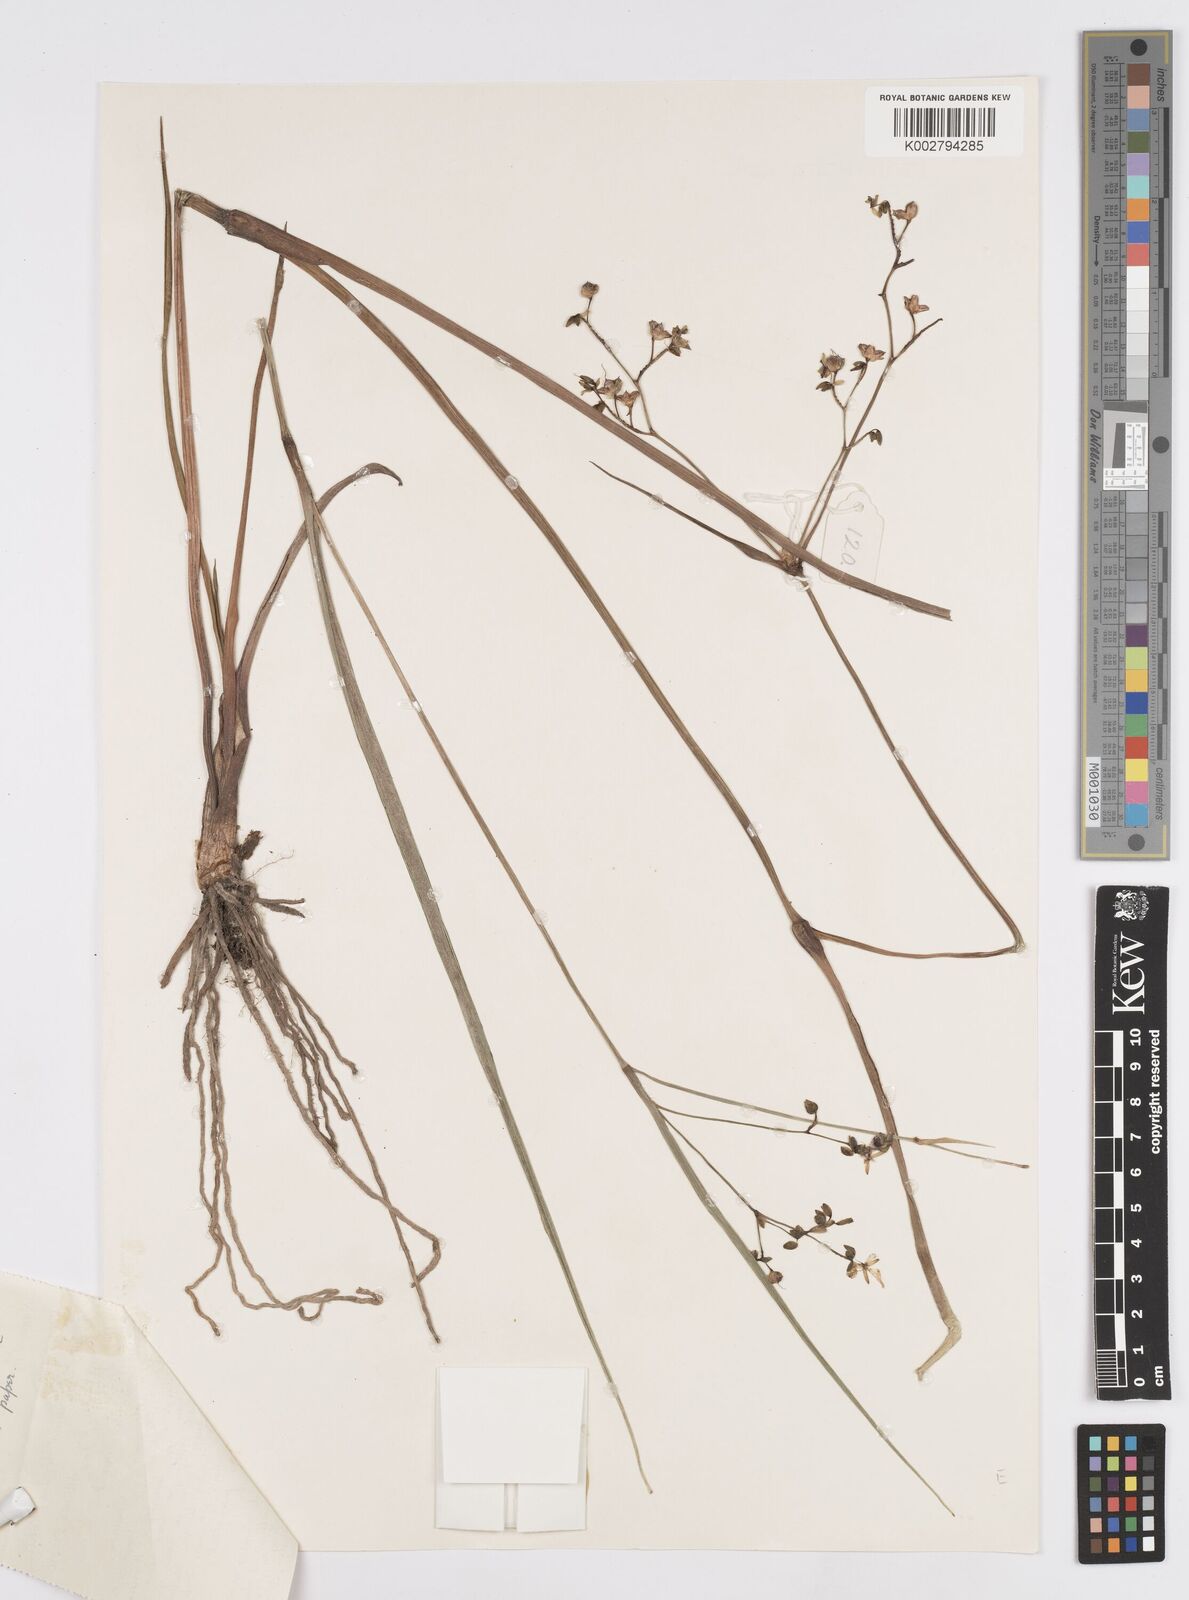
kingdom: Plantae
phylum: Tracheophyta
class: Liliopsida
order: Commelinales
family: Commelinaceae
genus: Murdannia
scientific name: Murdannia simplex
